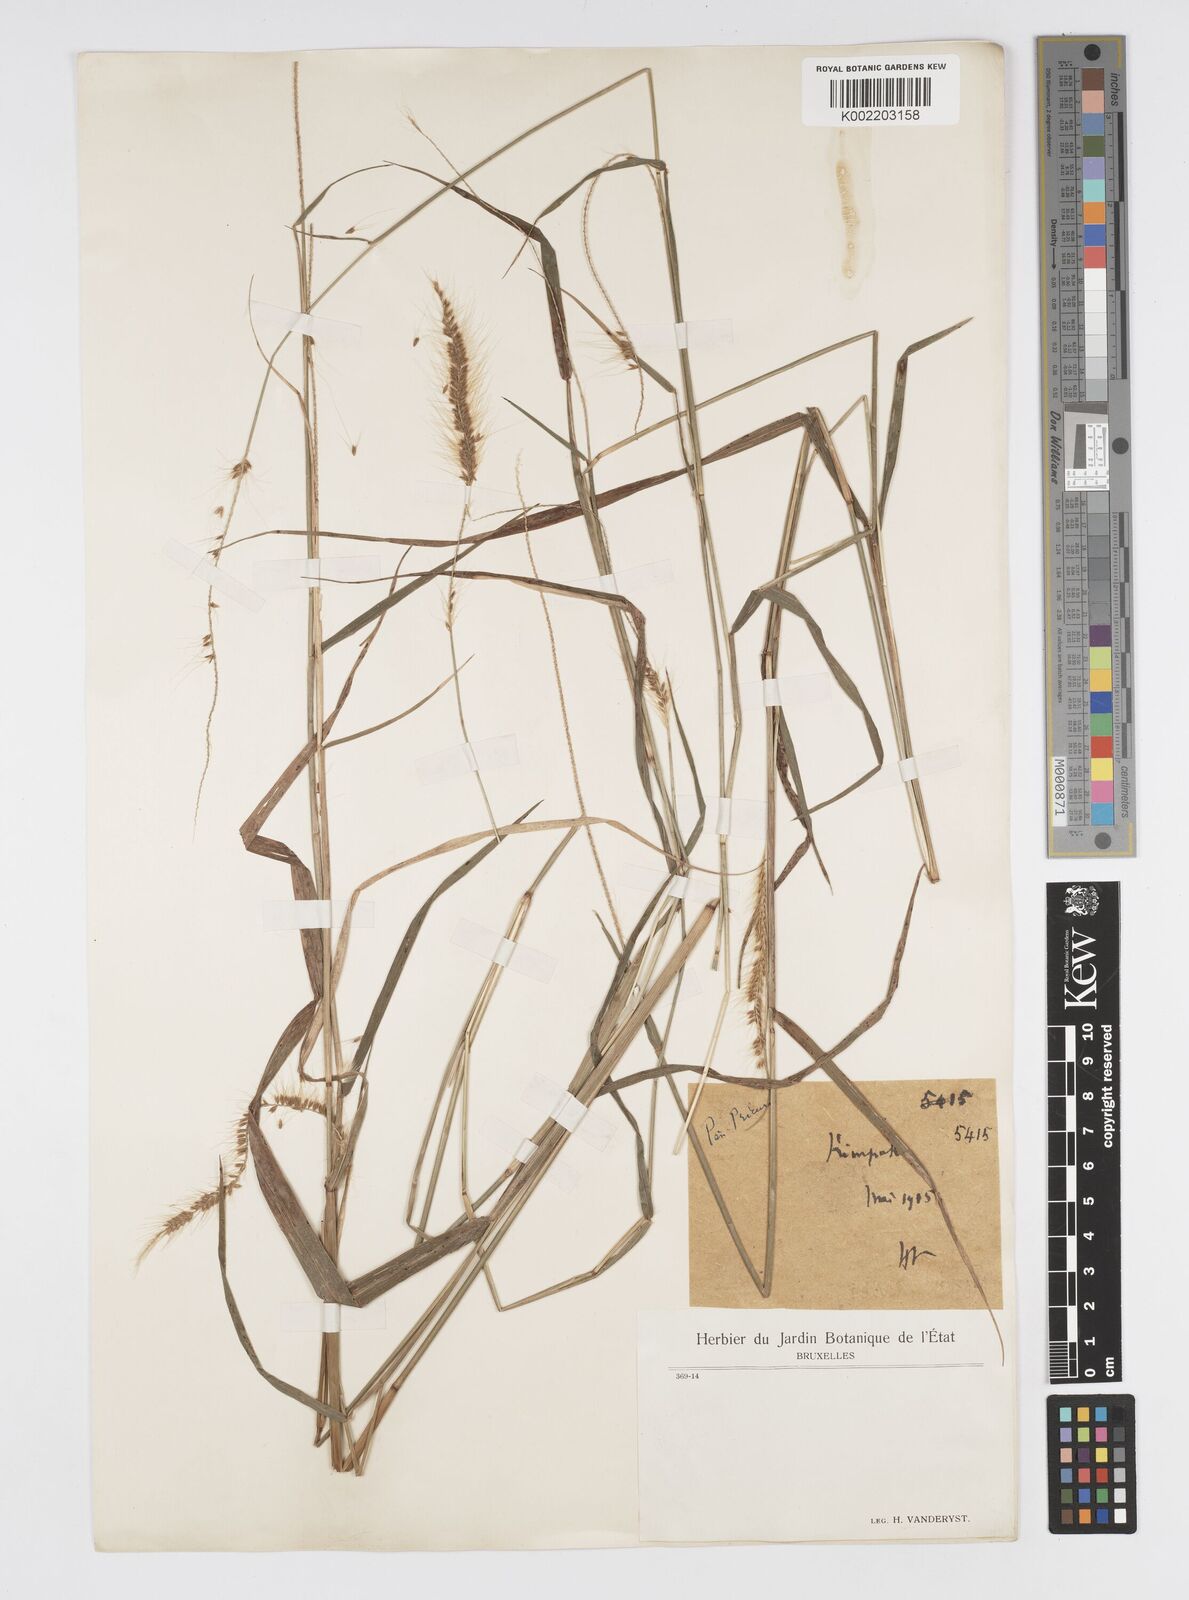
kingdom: Plantae
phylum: Tracheophyta
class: Liliopsida
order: Poales
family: Poaceae
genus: Cenchrus
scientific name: Cenchrus setosus
